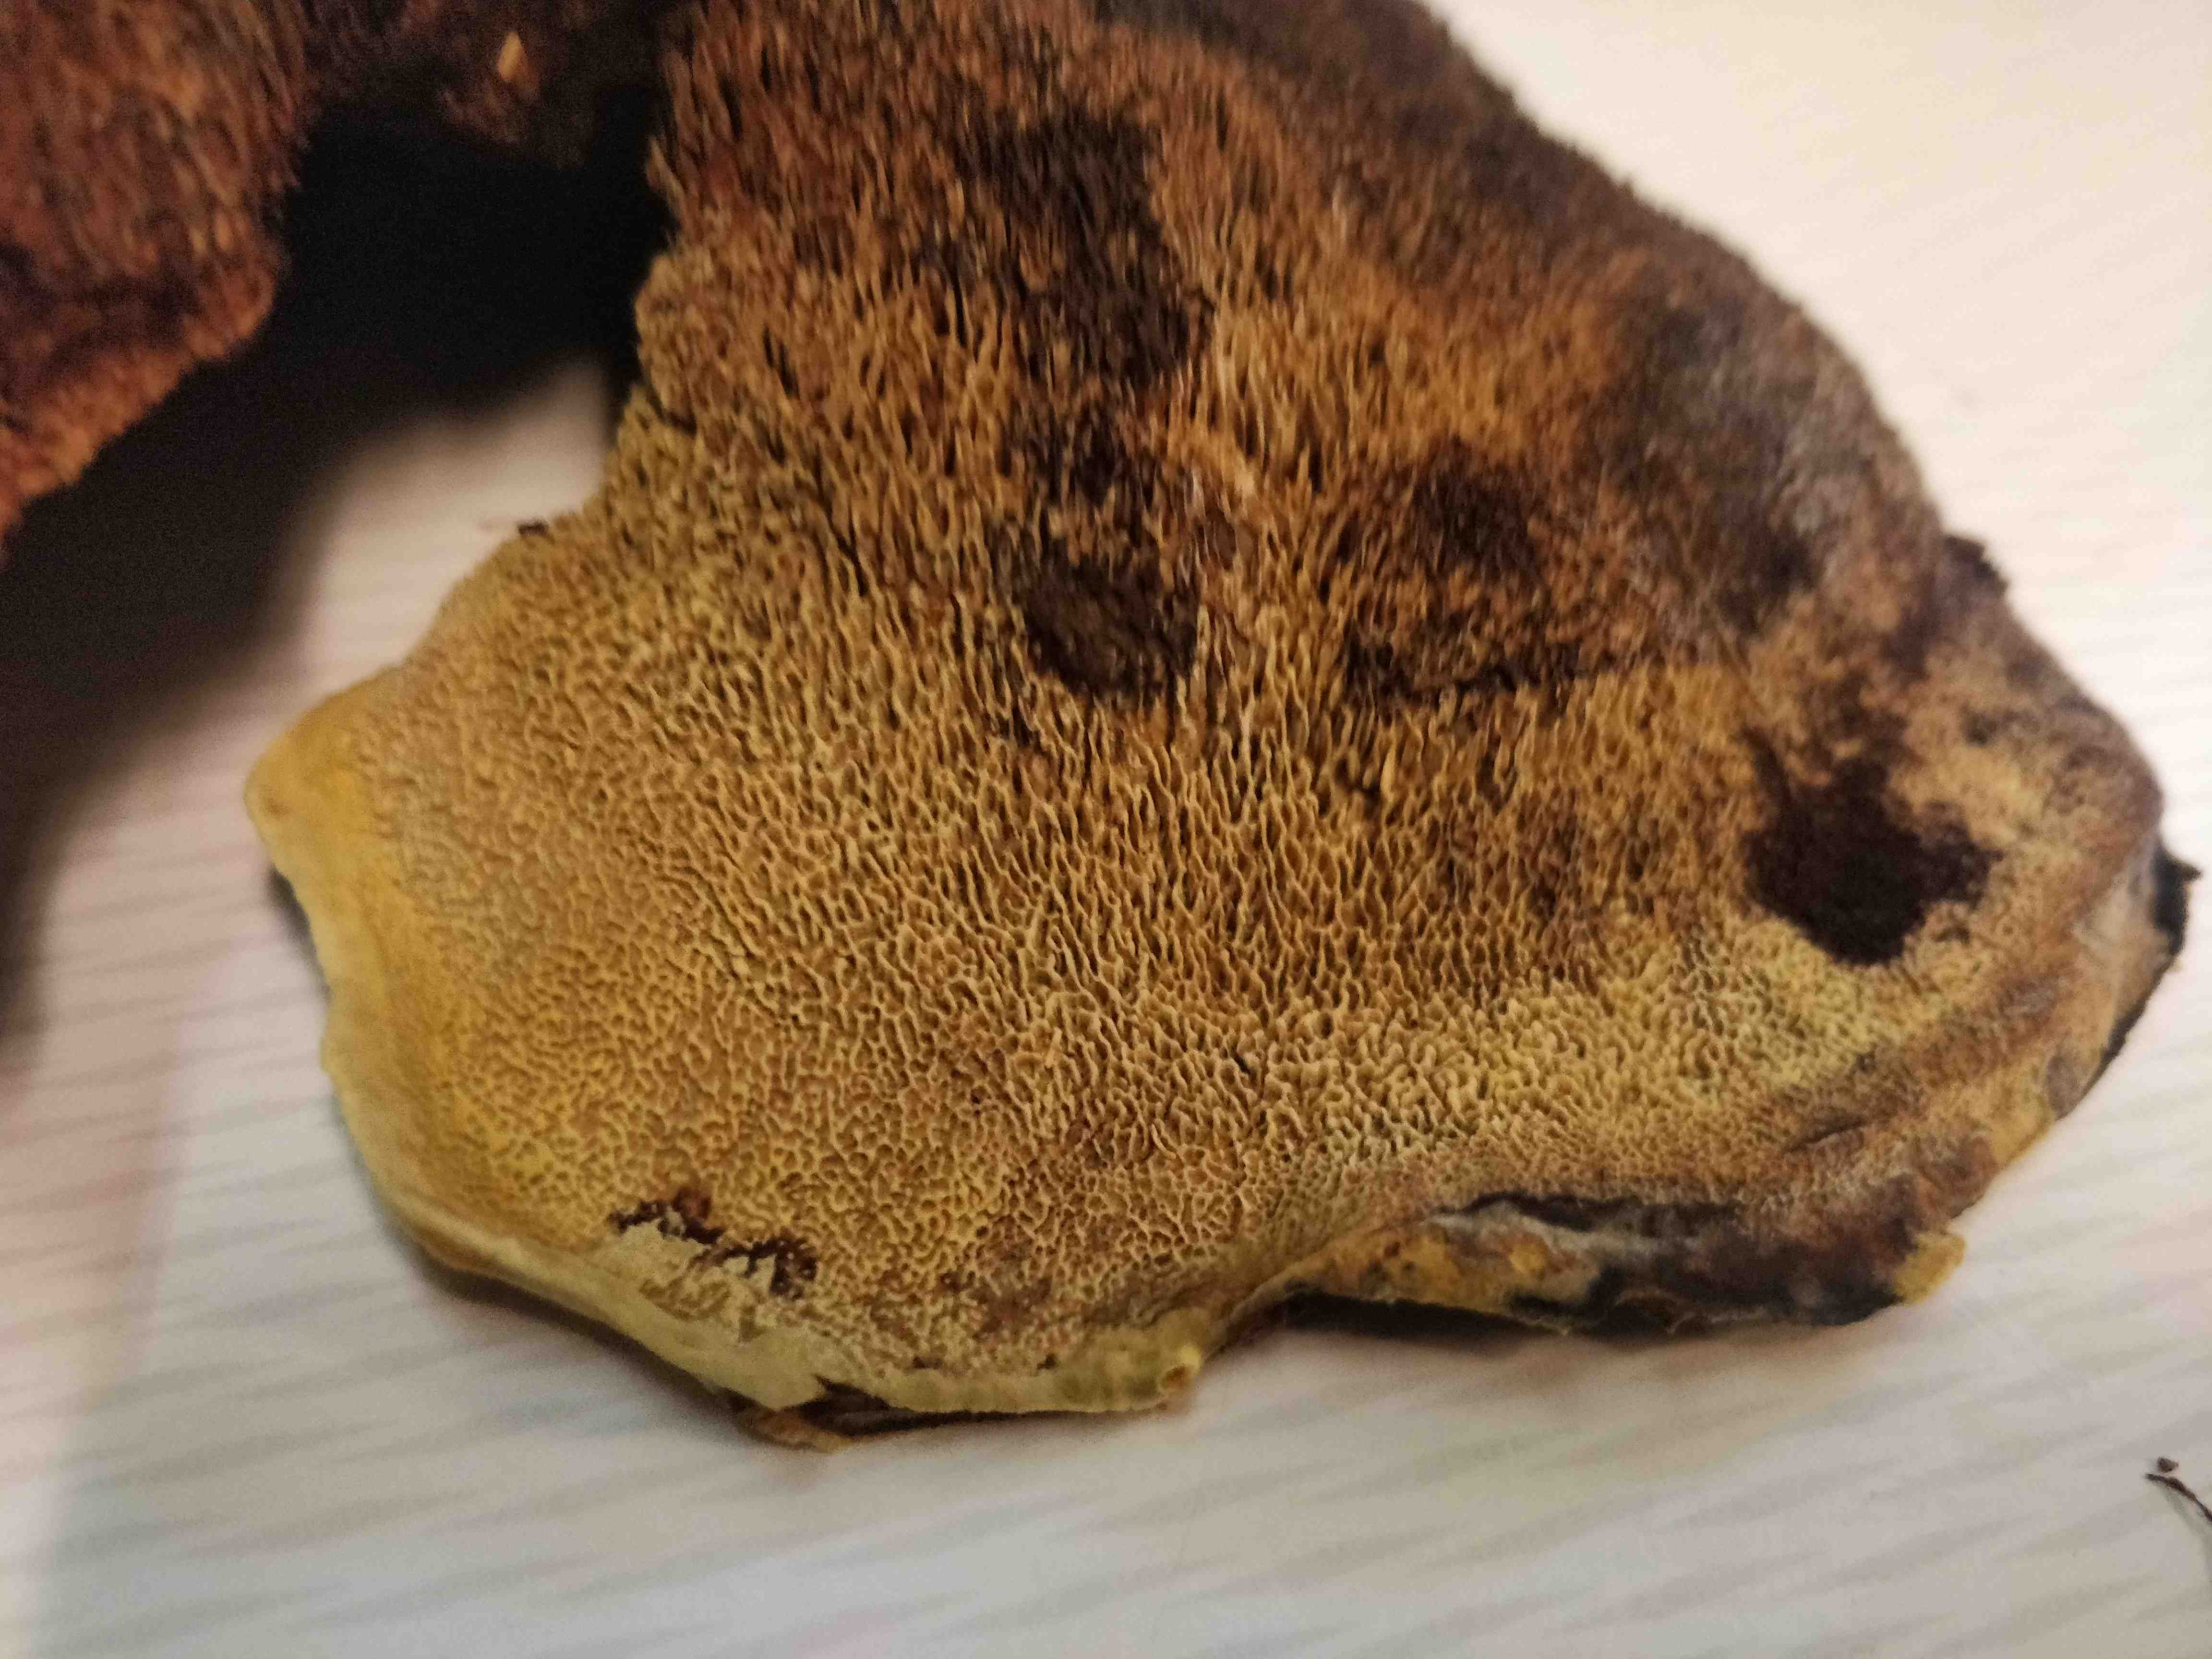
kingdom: Fungi
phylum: Basidiomycota
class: Agaricomycetes
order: Polyporales
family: Laetiporaceae
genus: Phaeolus
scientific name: Phaeolus schweinitzii
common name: brunporesvamp
